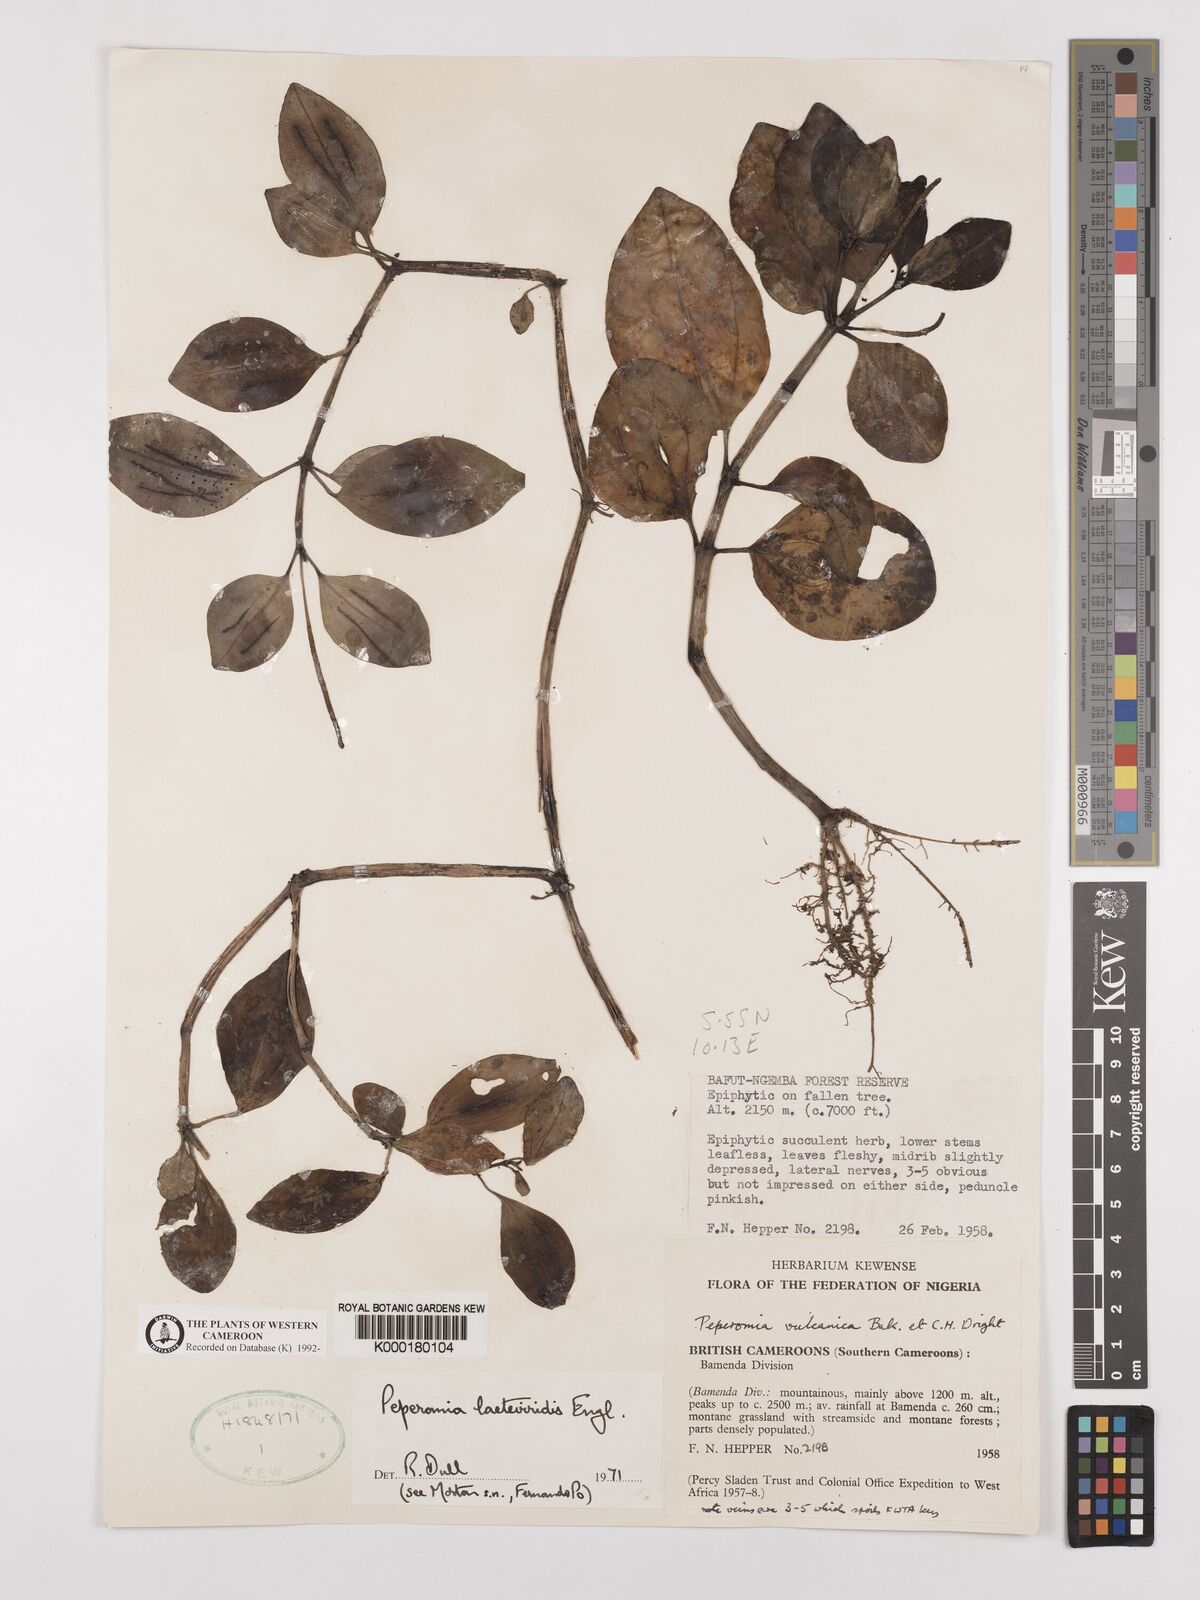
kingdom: Plantae
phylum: Tracheophyta
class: Magnoliopsida
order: Piperales
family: Piperaceae
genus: Peperomia
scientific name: Peperomia laeteviridis
